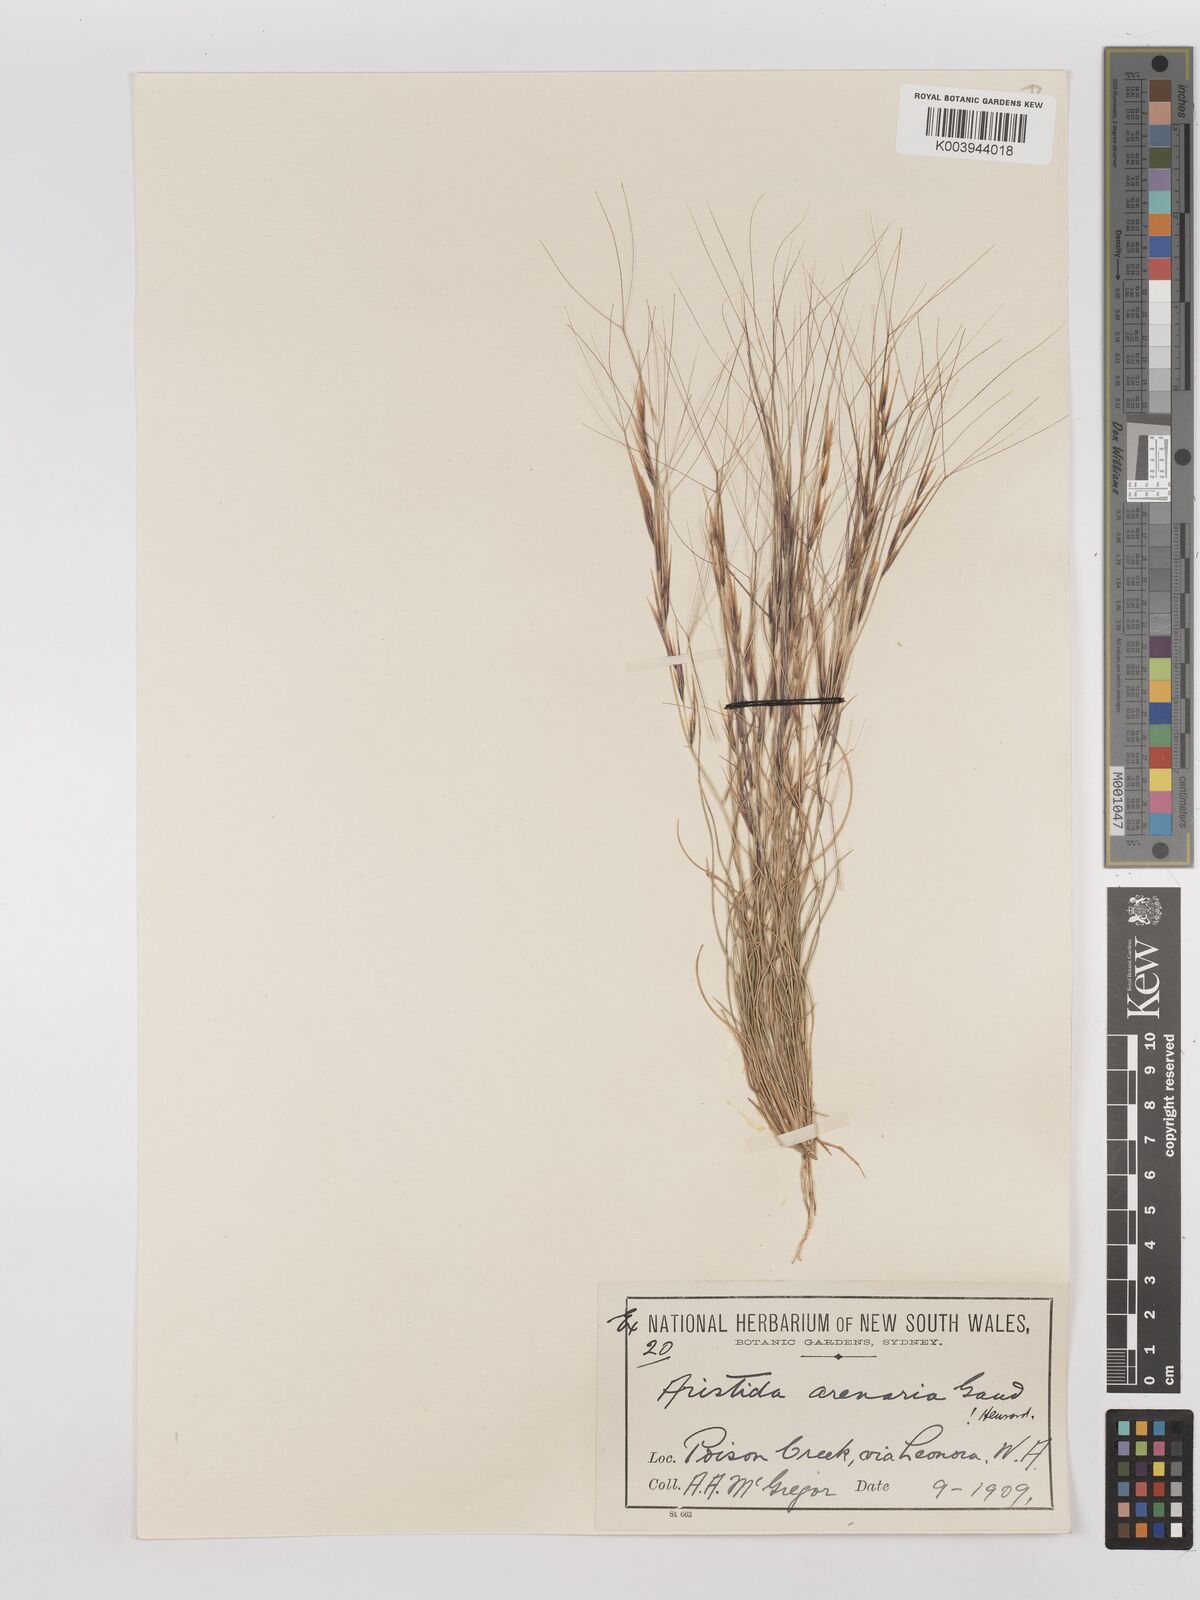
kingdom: Plantae
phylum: Tracheophyta
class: Liliopsida
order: Poales
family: Poaceae
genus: Aristida
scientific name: Aristida contorta
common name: Bunch kerosene grass
